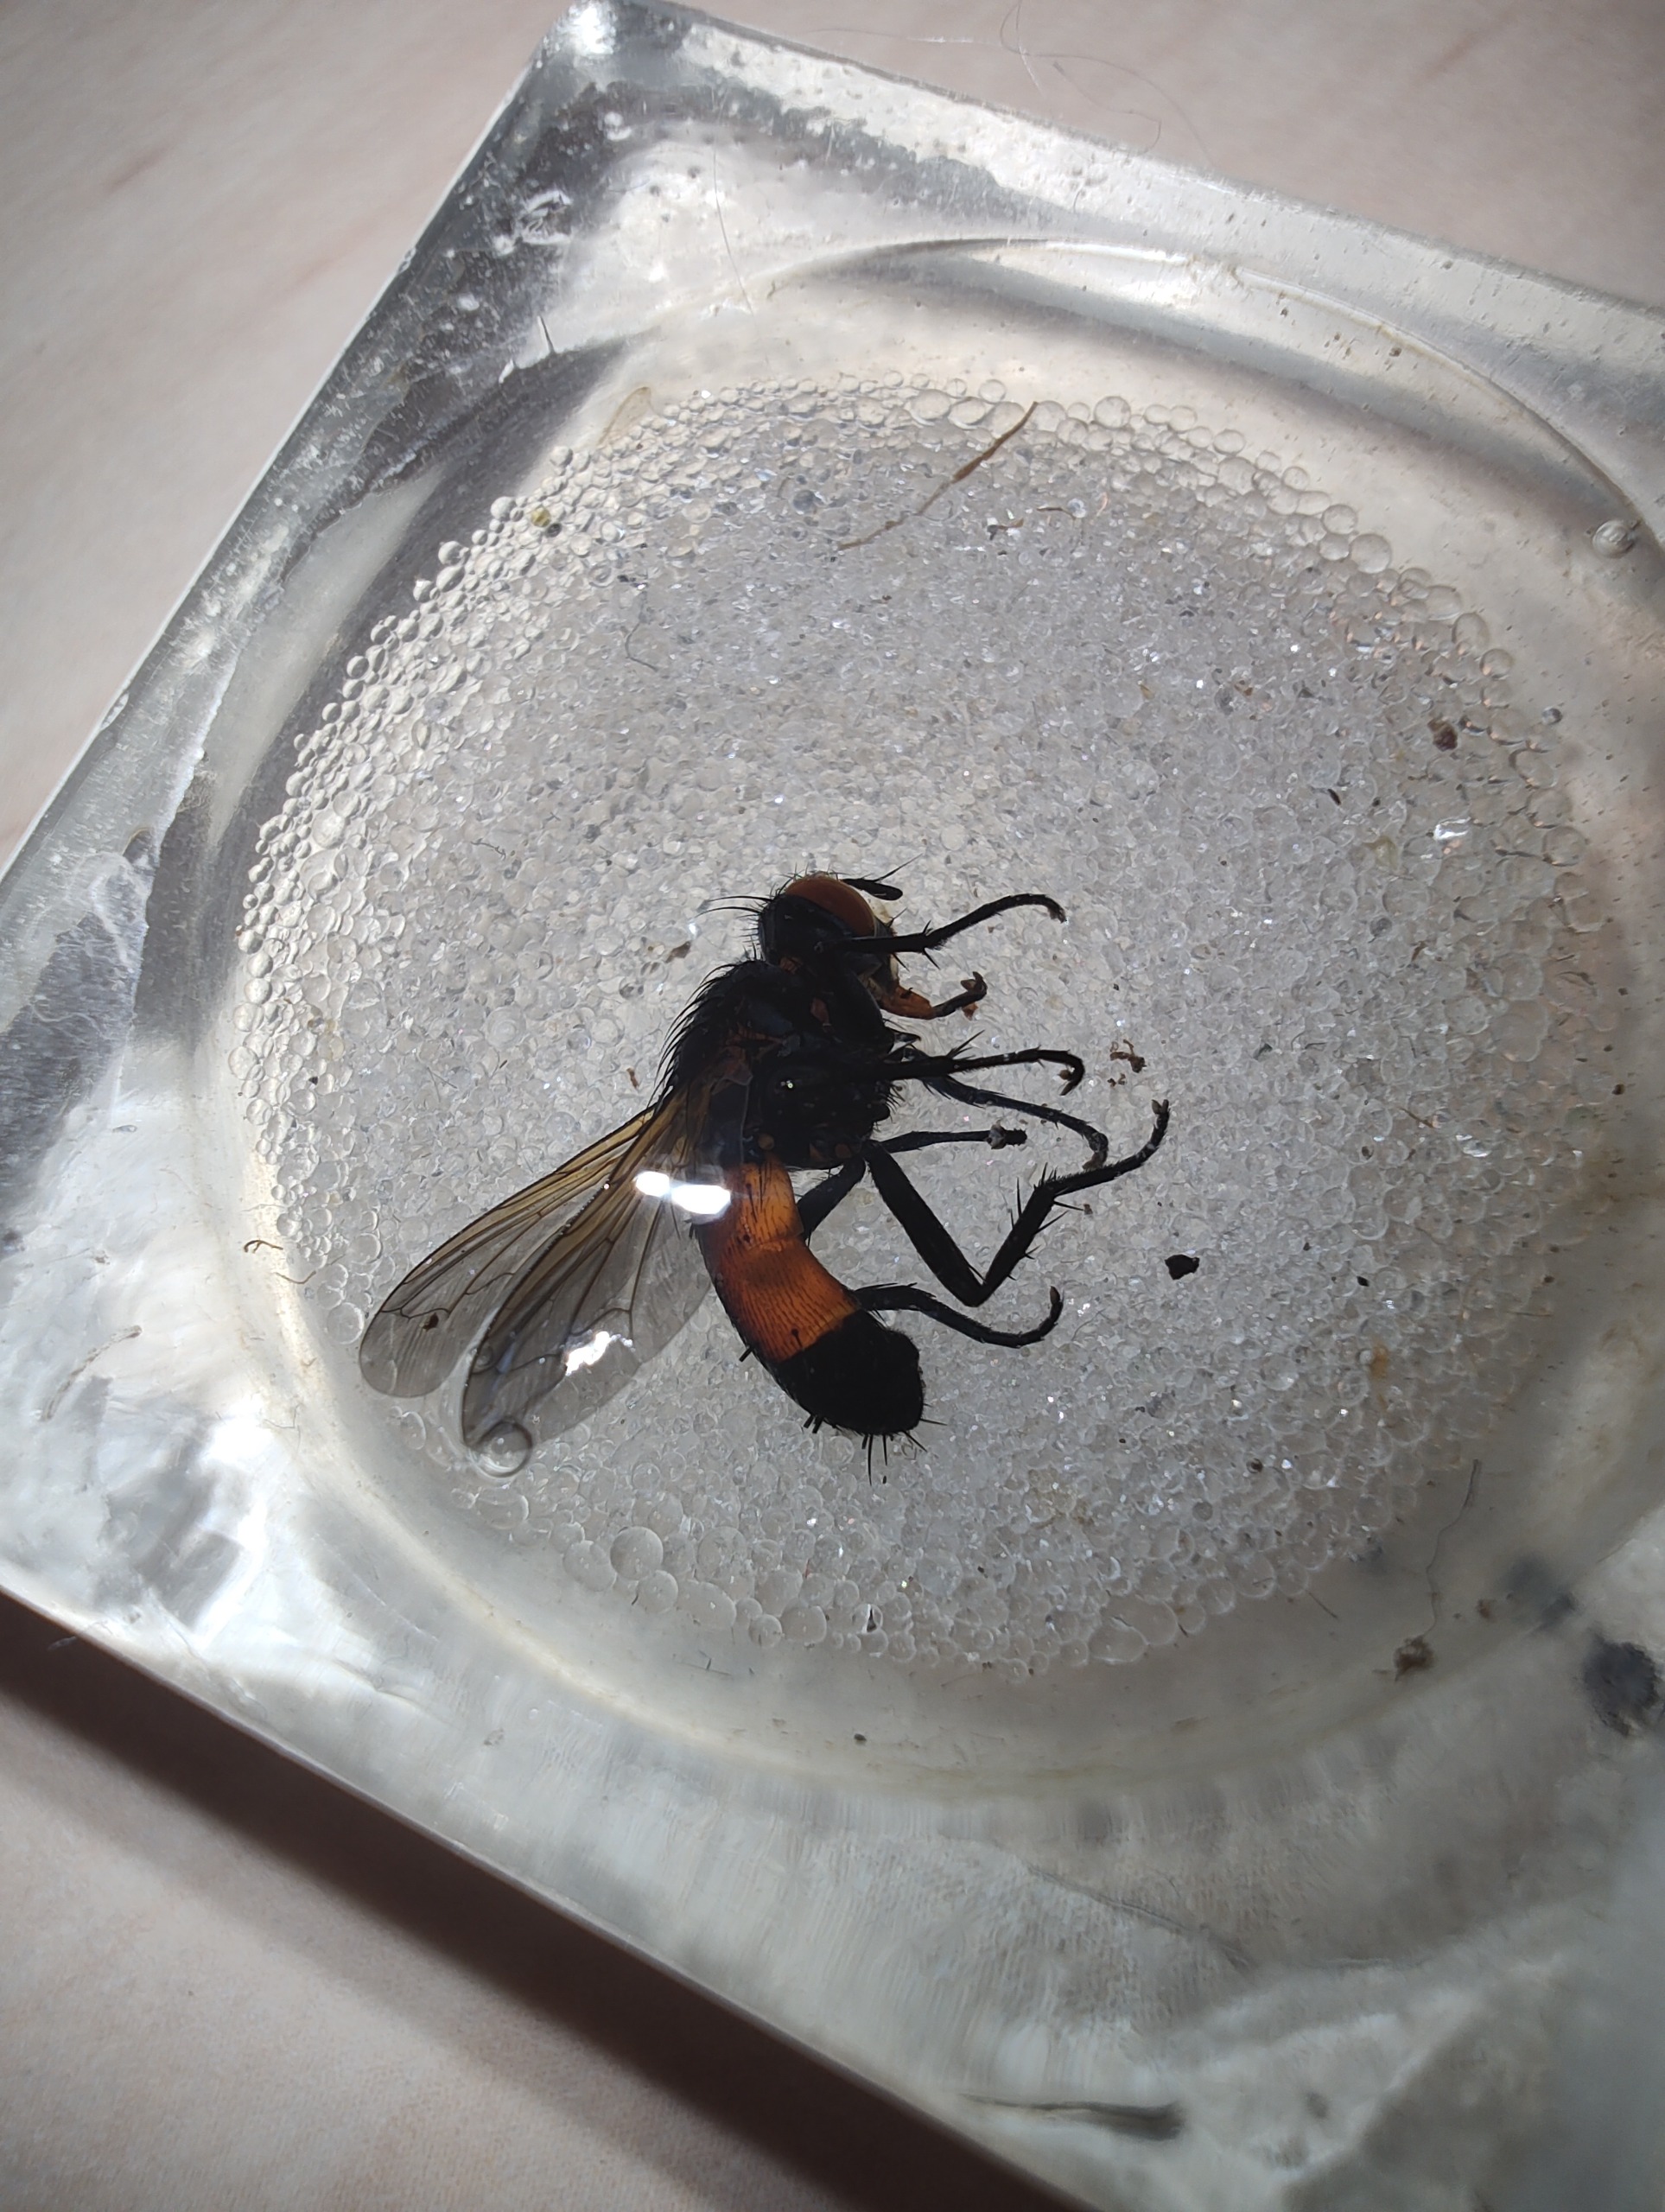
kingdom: Animalia
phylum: Arthropoda
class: Insecta
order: Diptera
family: Tachinidae
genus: Cylindromyia
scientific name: Cylindromyia brassicaria
